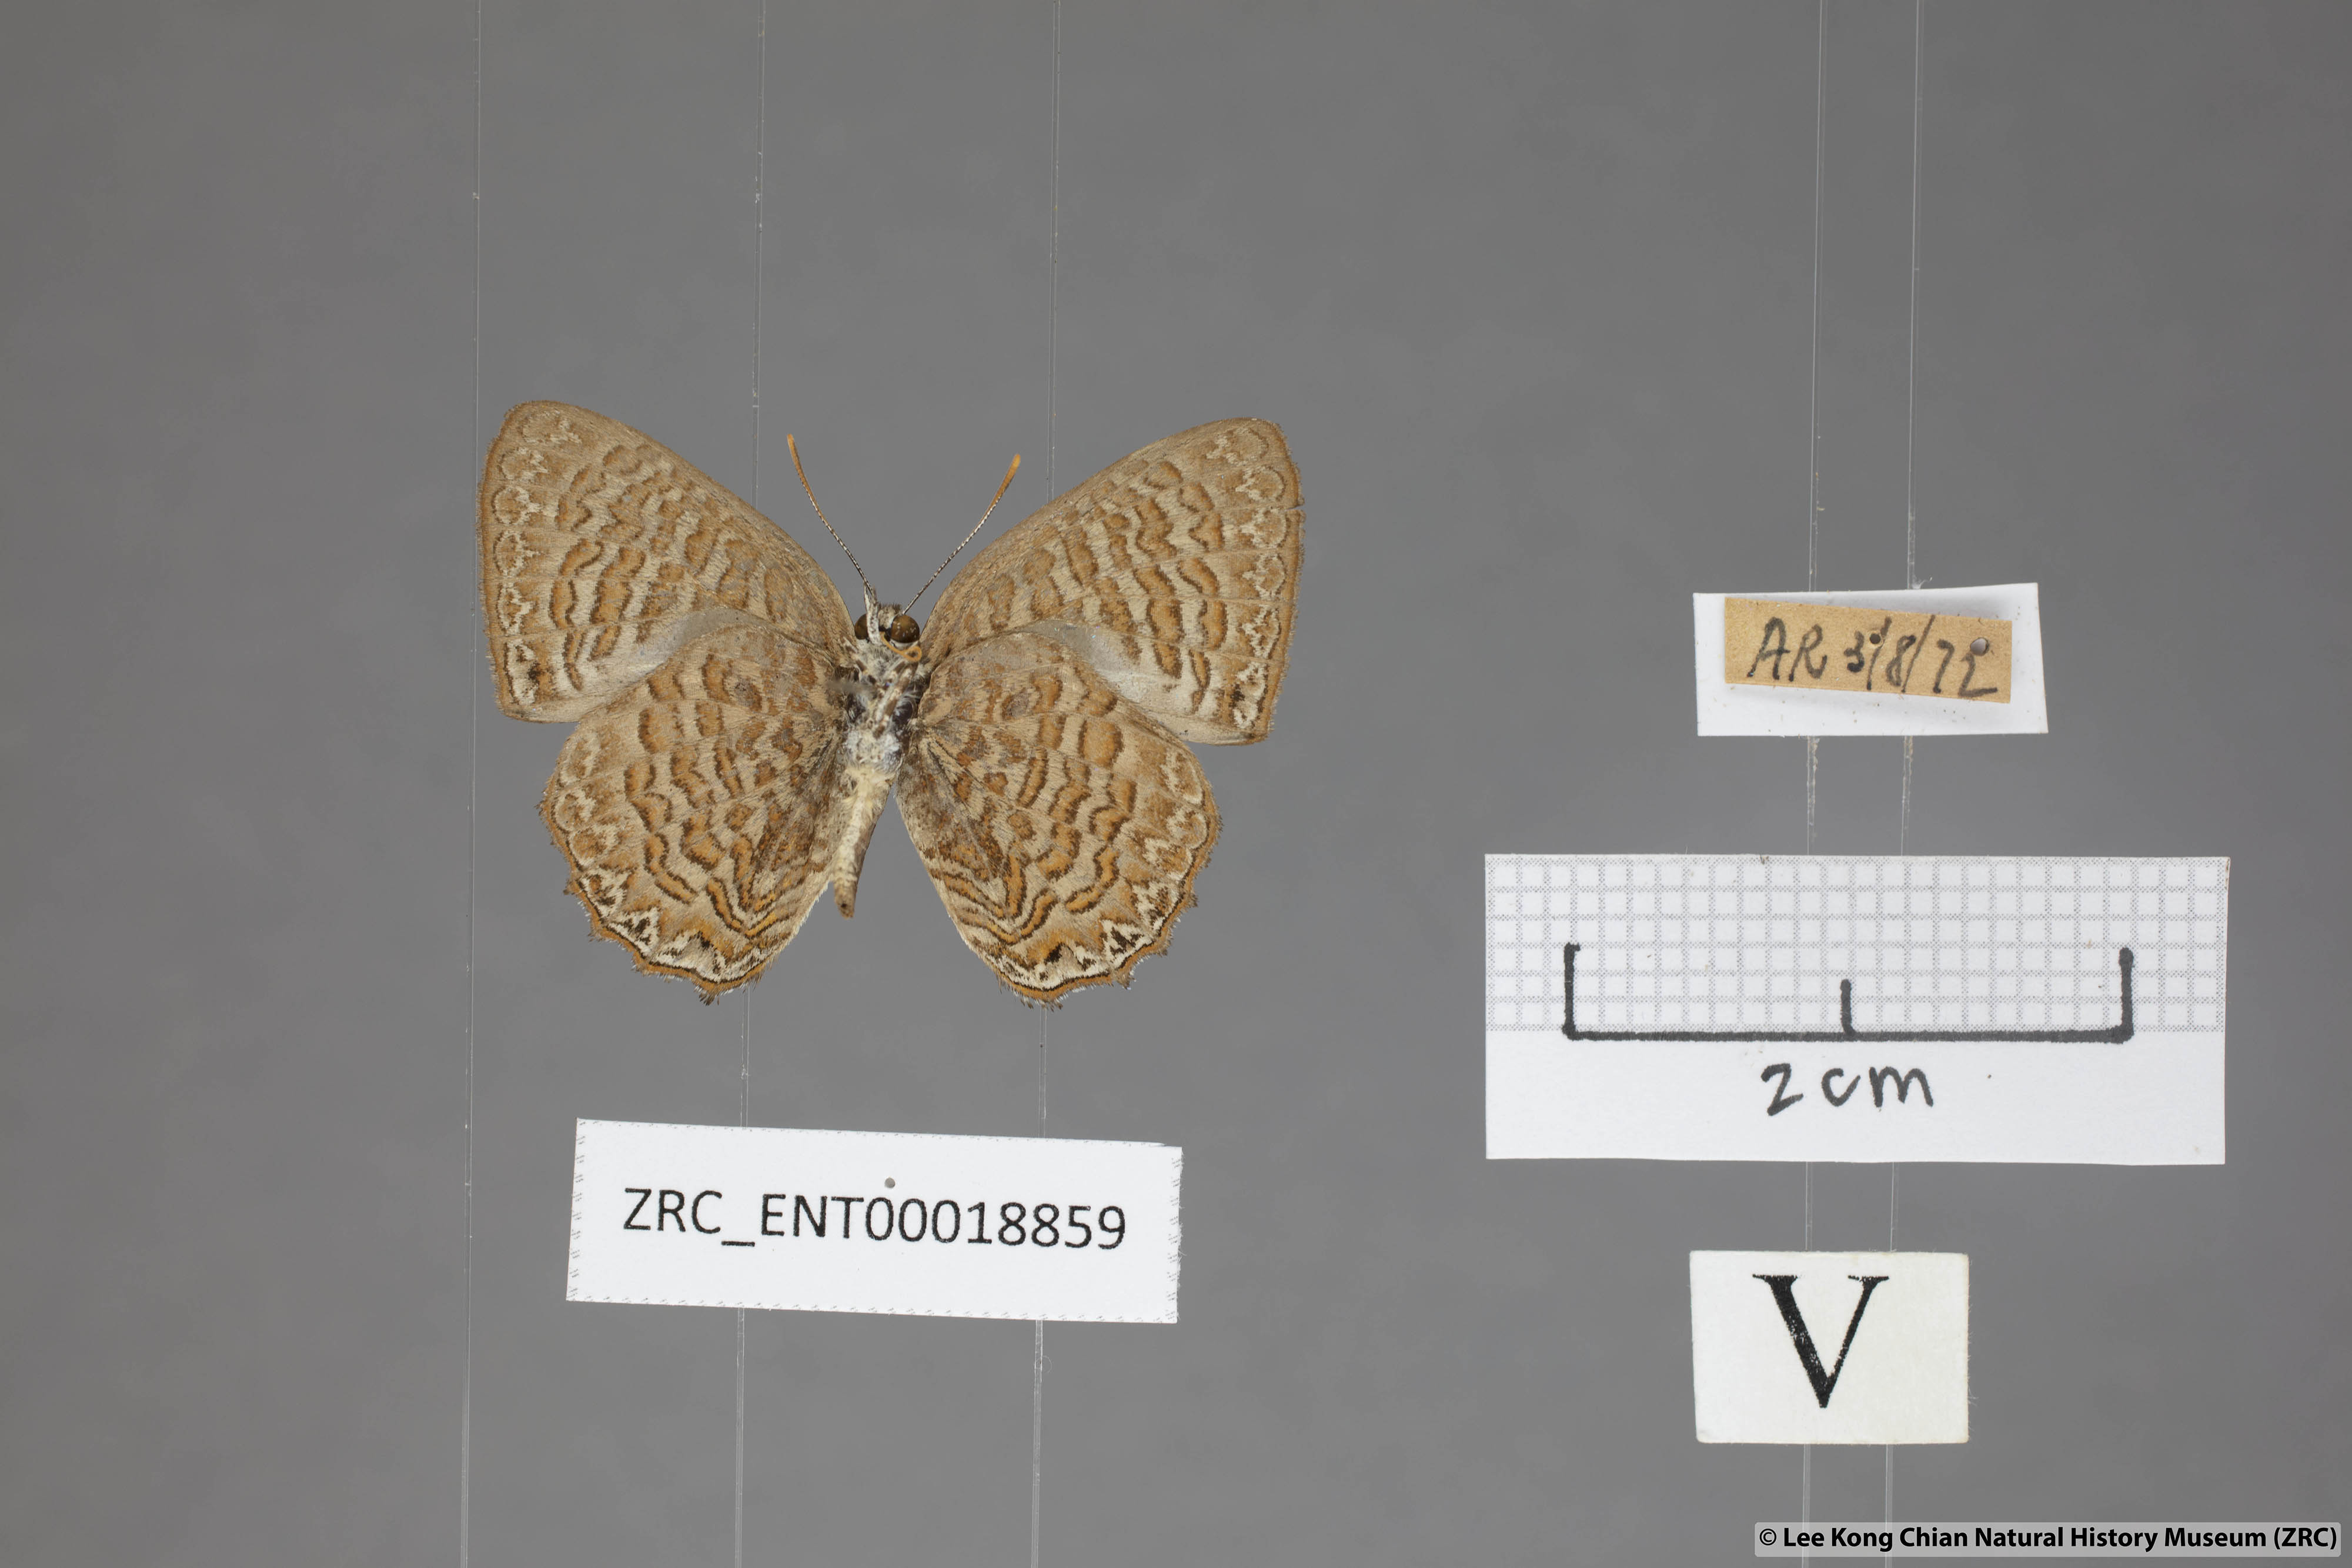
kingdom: Animalia
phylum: Arthropoda
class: Insecta
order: Lepidoptera
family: Lycaenidae
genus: Poritia
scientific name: Poritia sumatrae
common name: Sumatran gem
